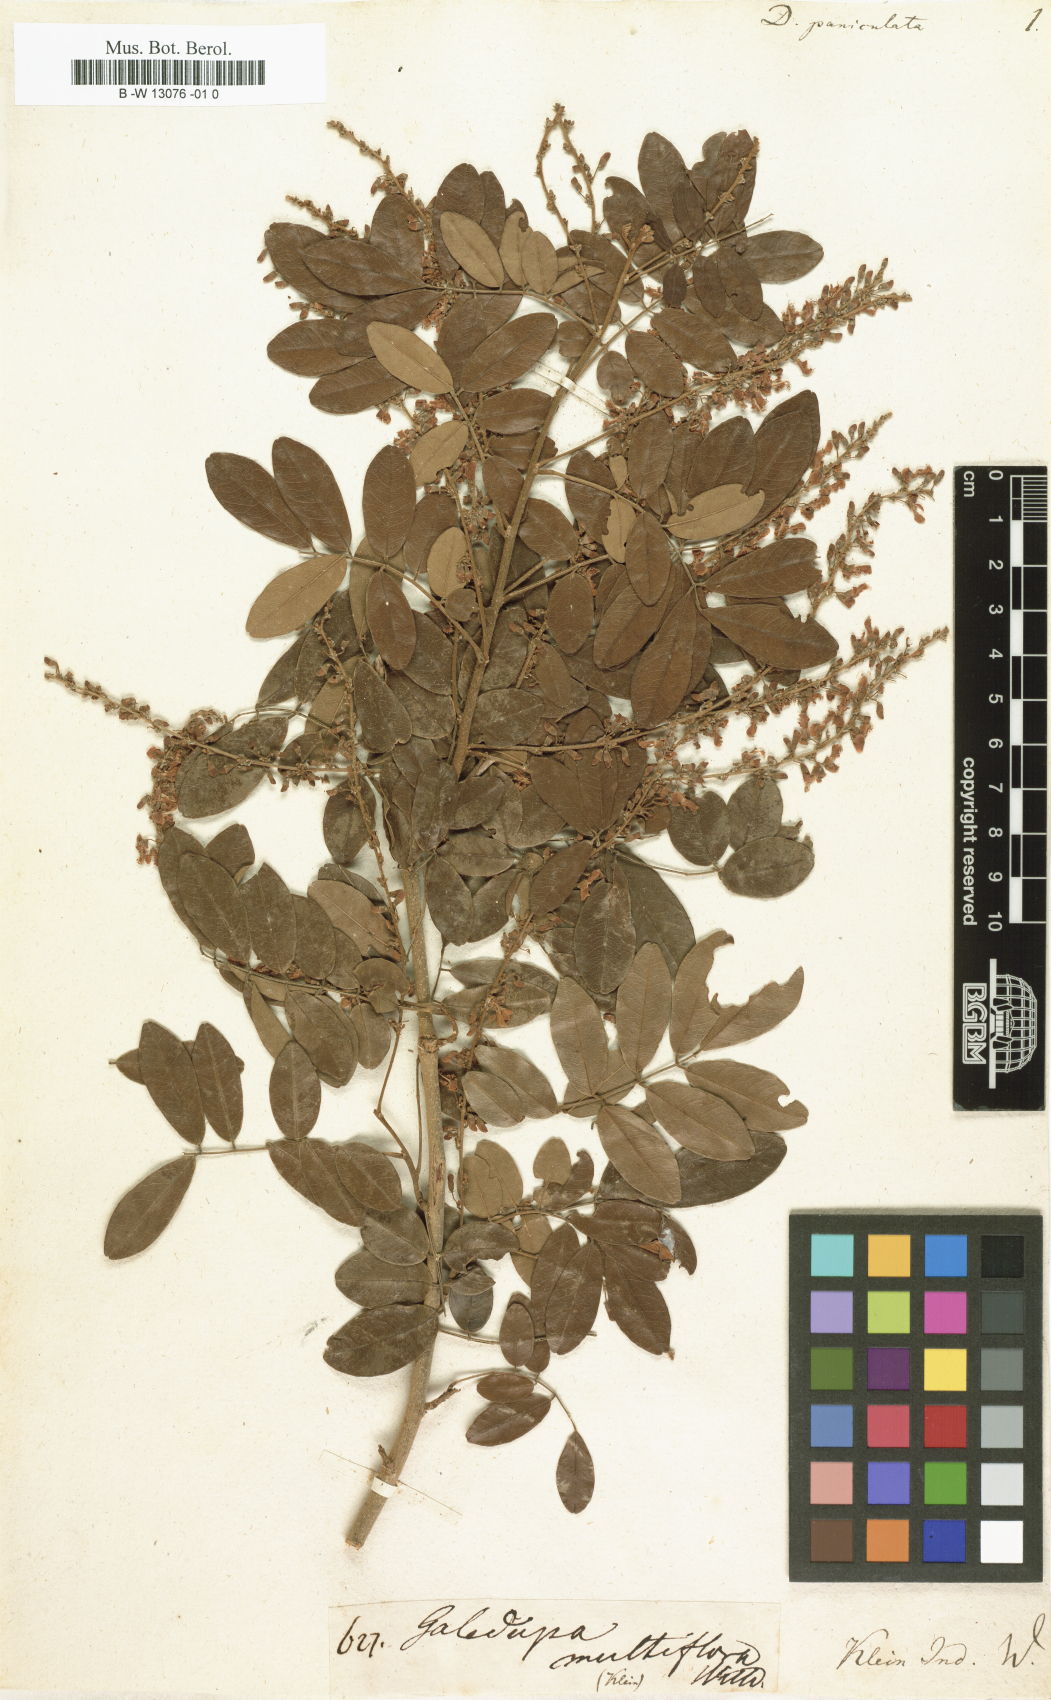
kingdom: Plantae
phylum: Tracheophyta
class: Magnoliopsida
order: Fabales
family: Fabaceae
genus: Dalbergia
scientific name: Dalbergia paniculata
